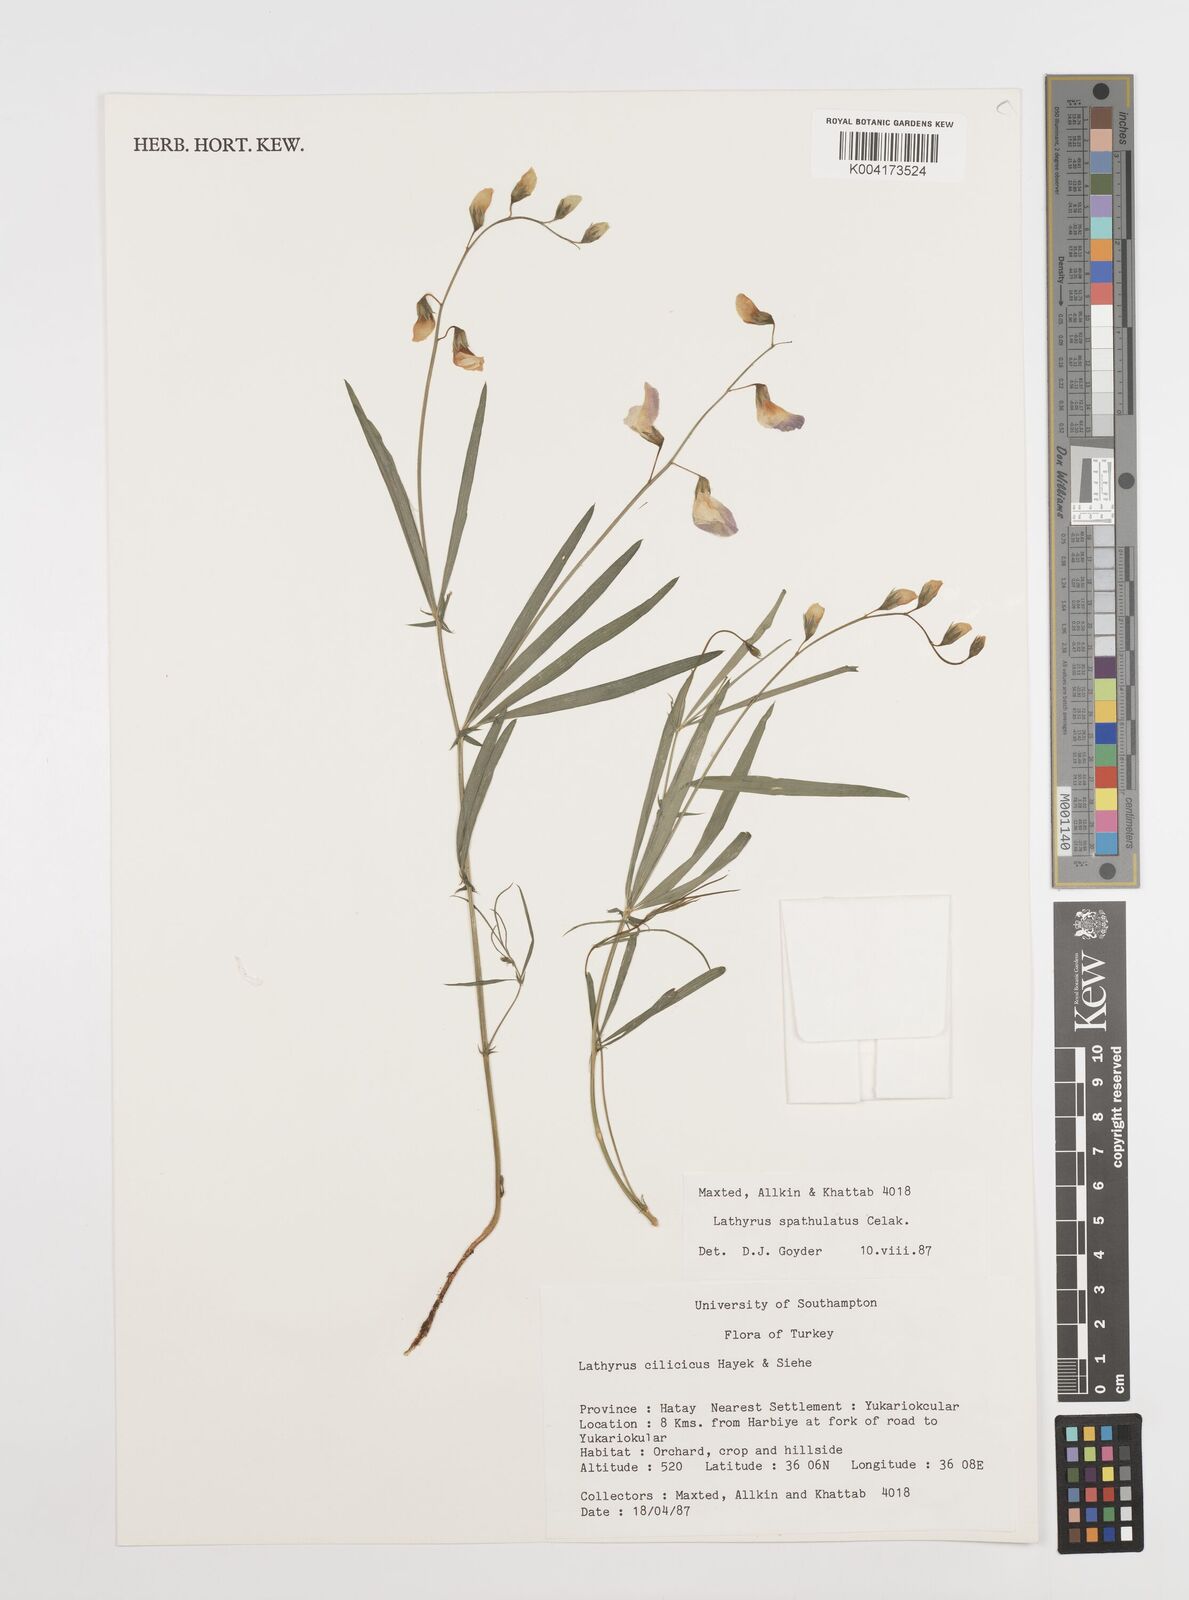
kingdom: Plantae
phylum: Tracheophyta
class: Magnoliopsida
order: Fabales
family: Fabaceae
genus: Lathyrus
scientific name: Lathyrus spathulatus
